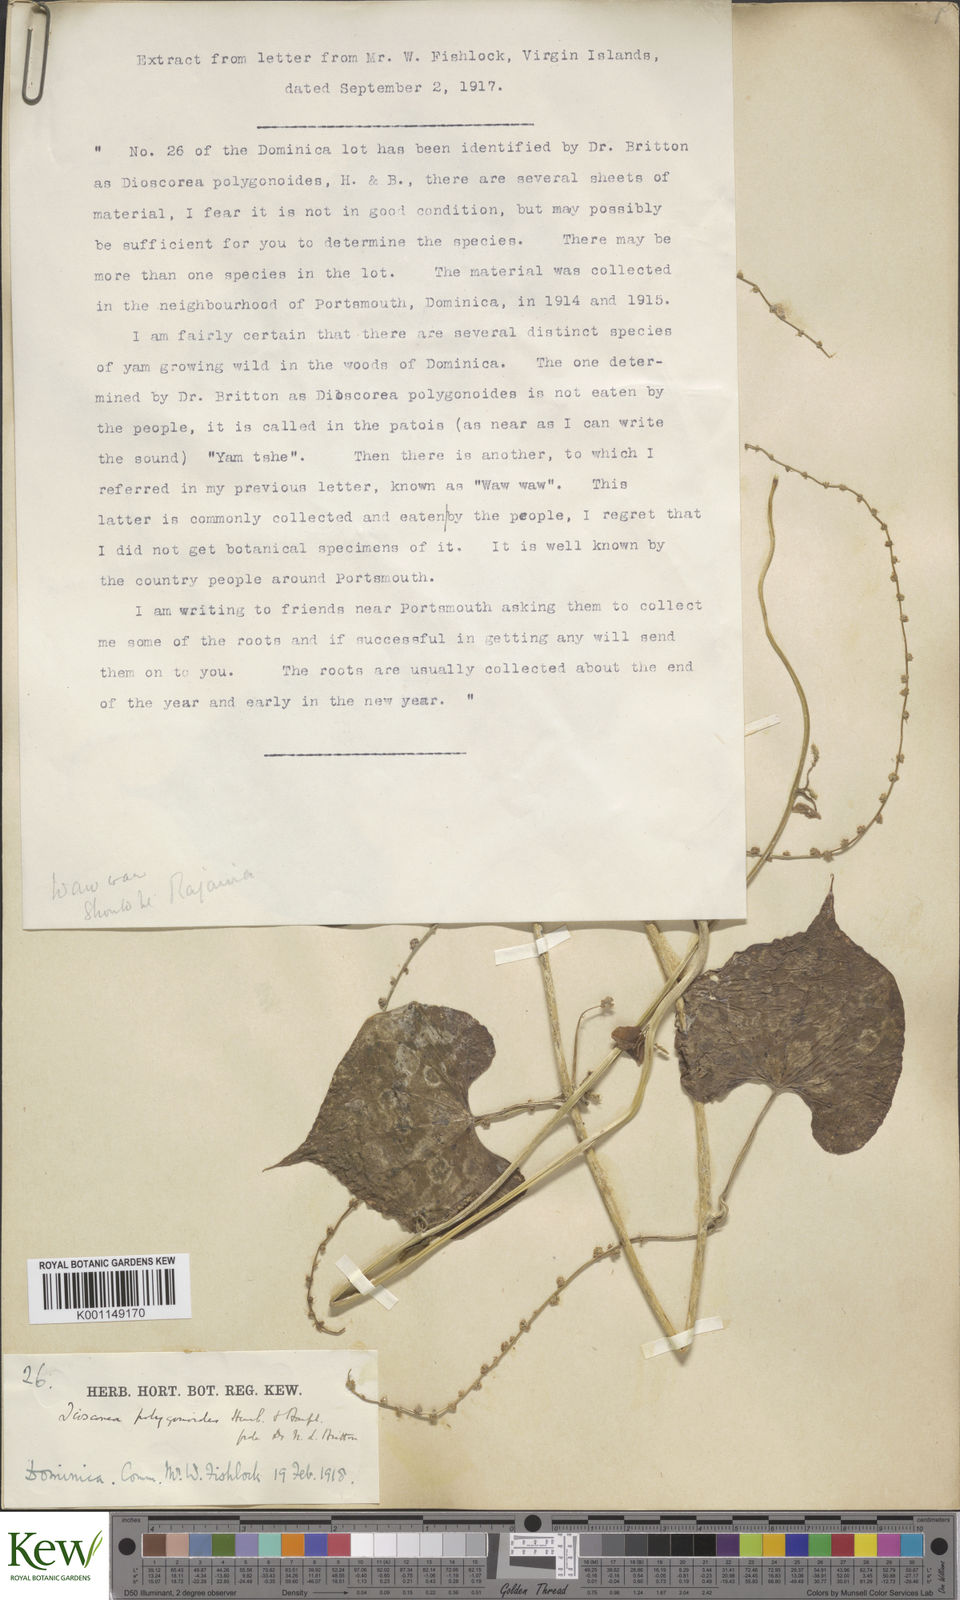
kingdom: Plantae
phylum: Tracheophyta
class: Liliopsida
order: Dioscoreales
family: Dioscoreaceae
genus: Dioscorea
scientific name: Dioscorea polygonoides
